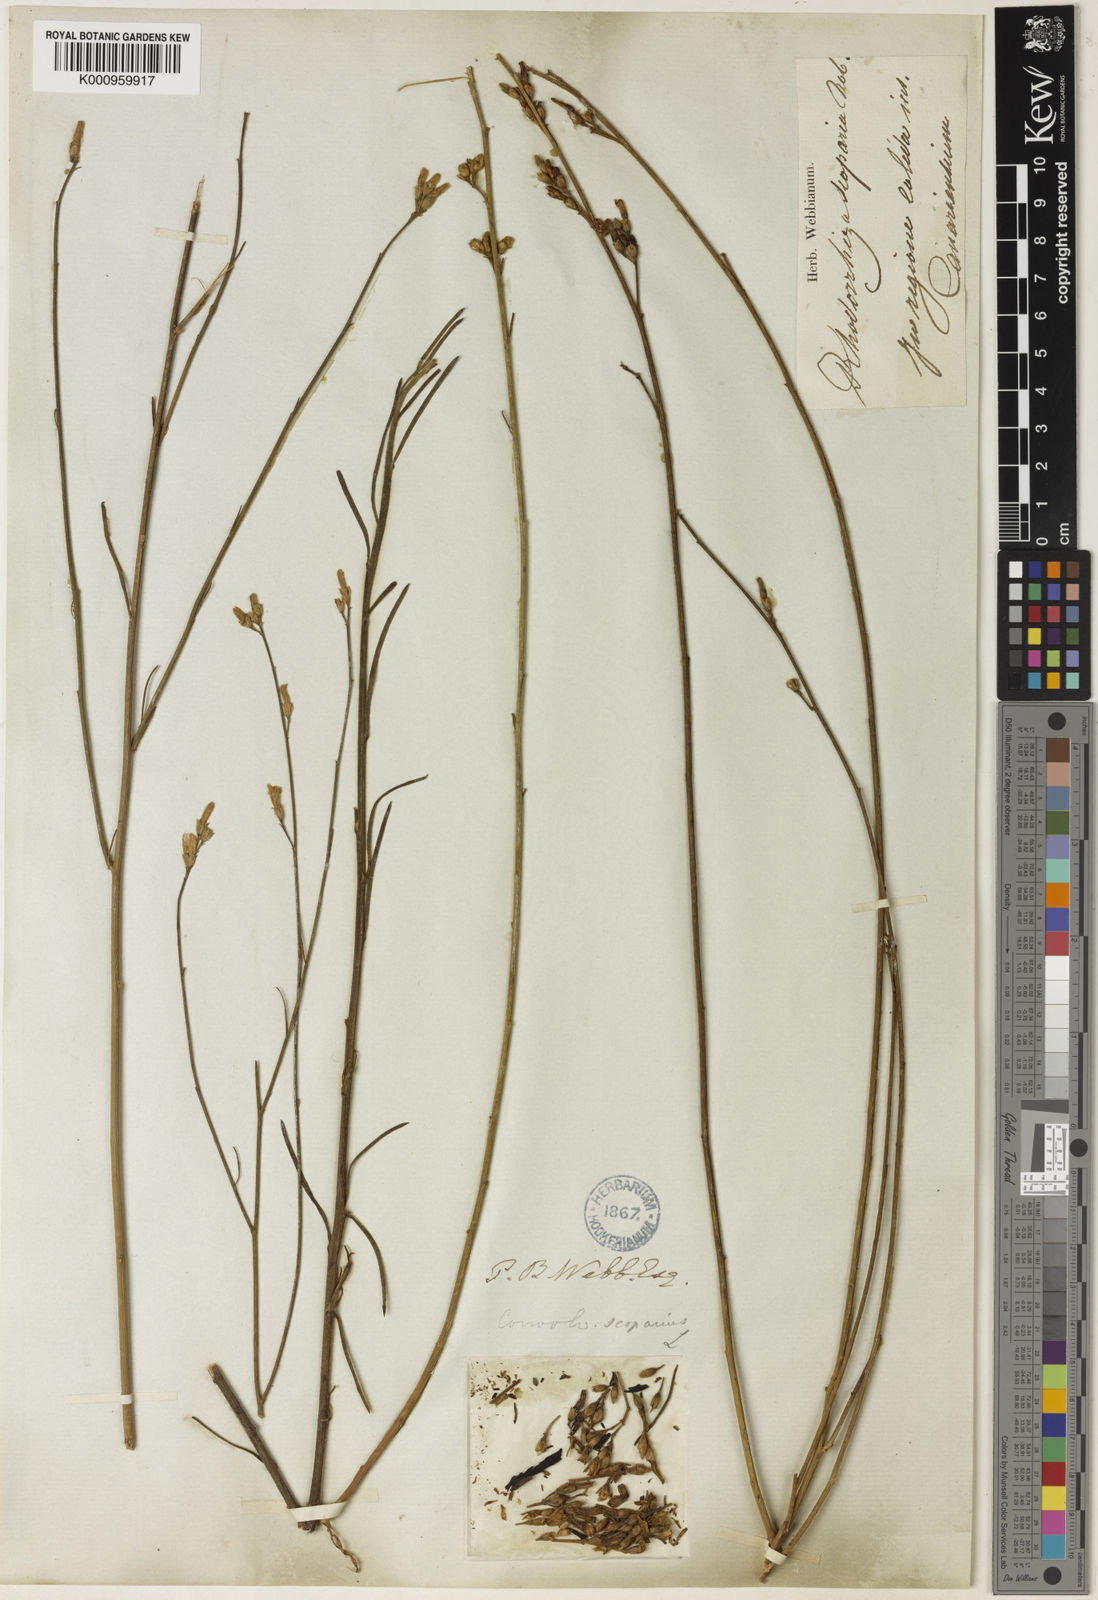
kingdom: Plantae
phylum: Tracheophyta
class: Magnoliopsida
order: Solanales
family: Convolvulaceae
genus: Convolvulus
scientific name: Convolvulus scoparius
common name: Lignum rhodium
